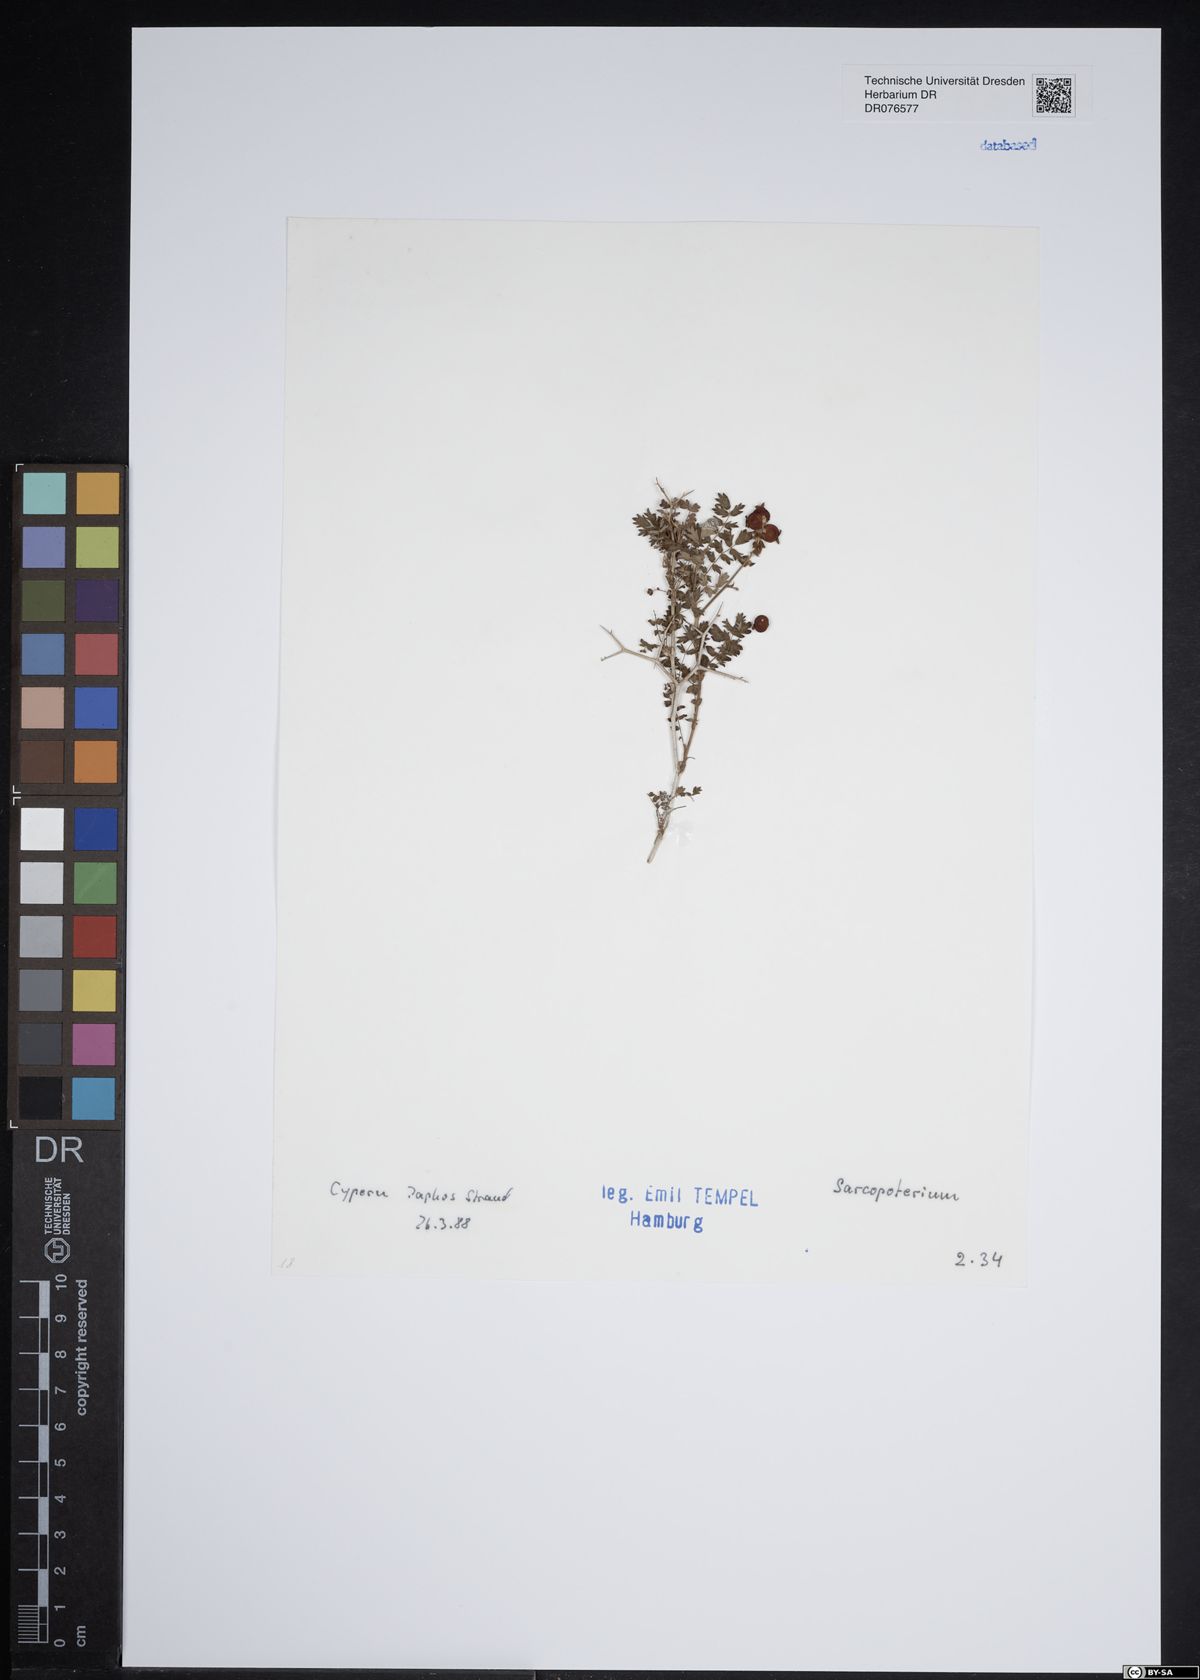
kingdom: Plantae
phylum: Tracheophyta
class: Magnoliopsida
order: Rosales
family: Rosaceae
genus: Sarcopoterium
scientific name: Sarcopoterium
